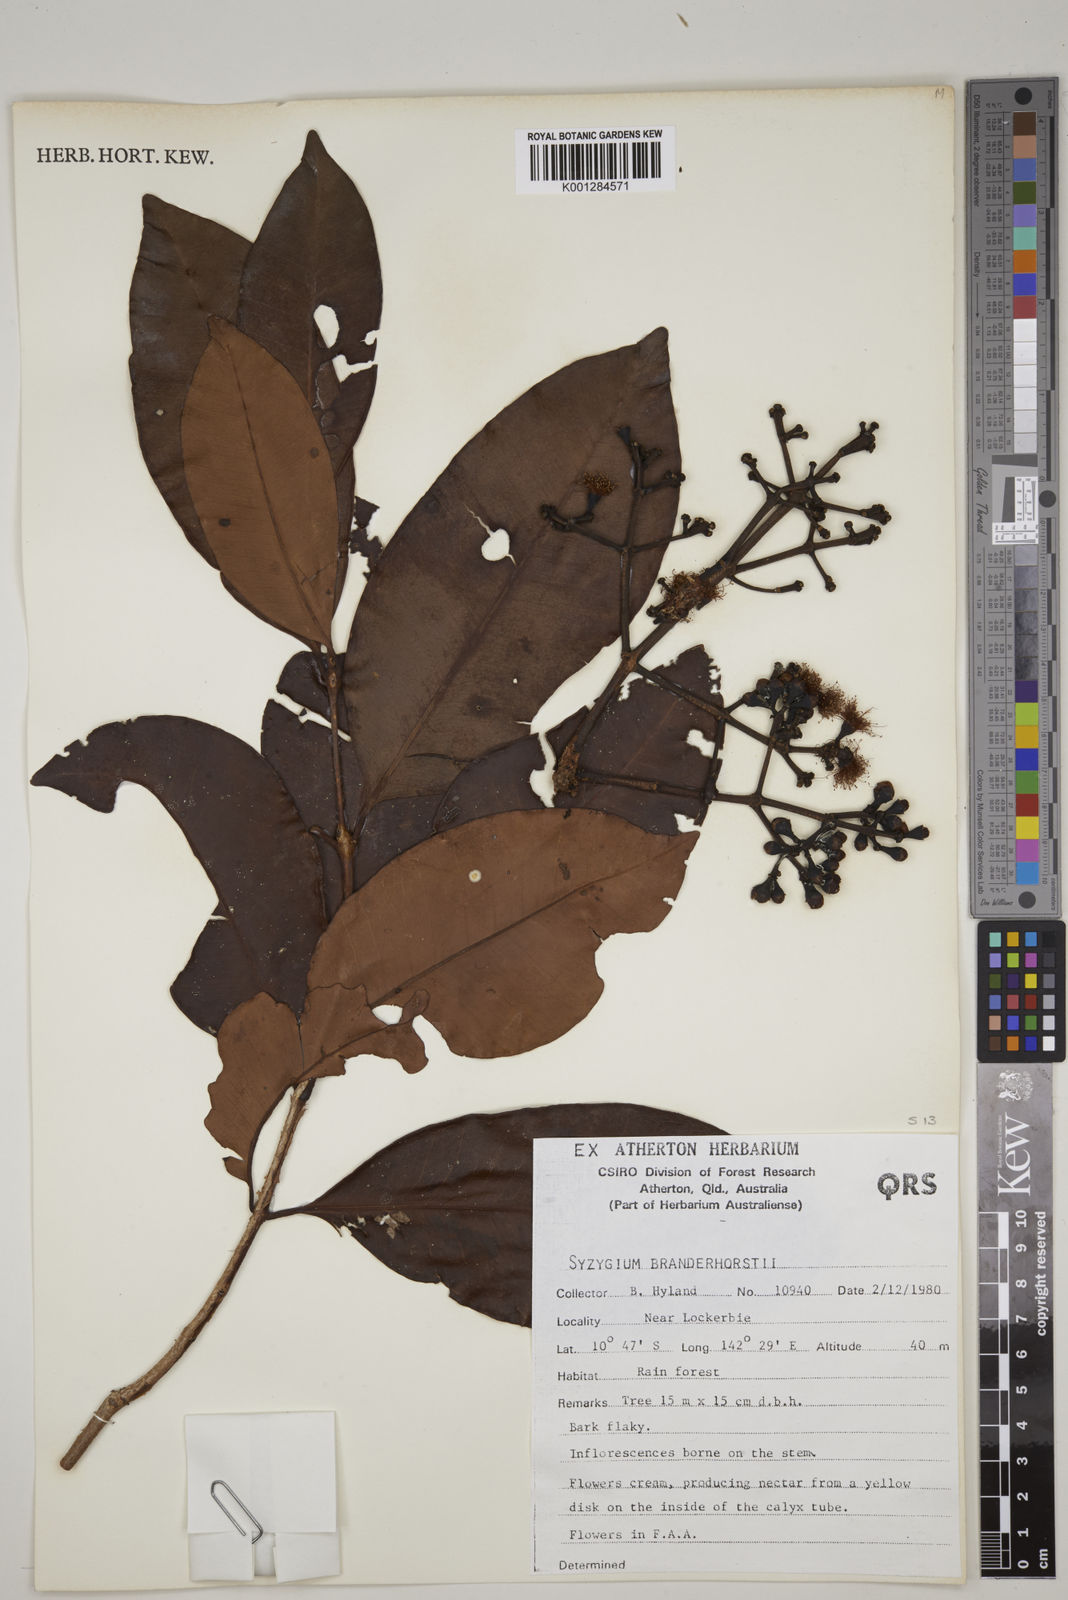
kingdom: Plantae
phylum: Tracheophyta
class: Magnoliopsida
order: Myrtales
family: Myrtaceae
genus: Syzygium
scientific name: Syzygium branderhorstii
